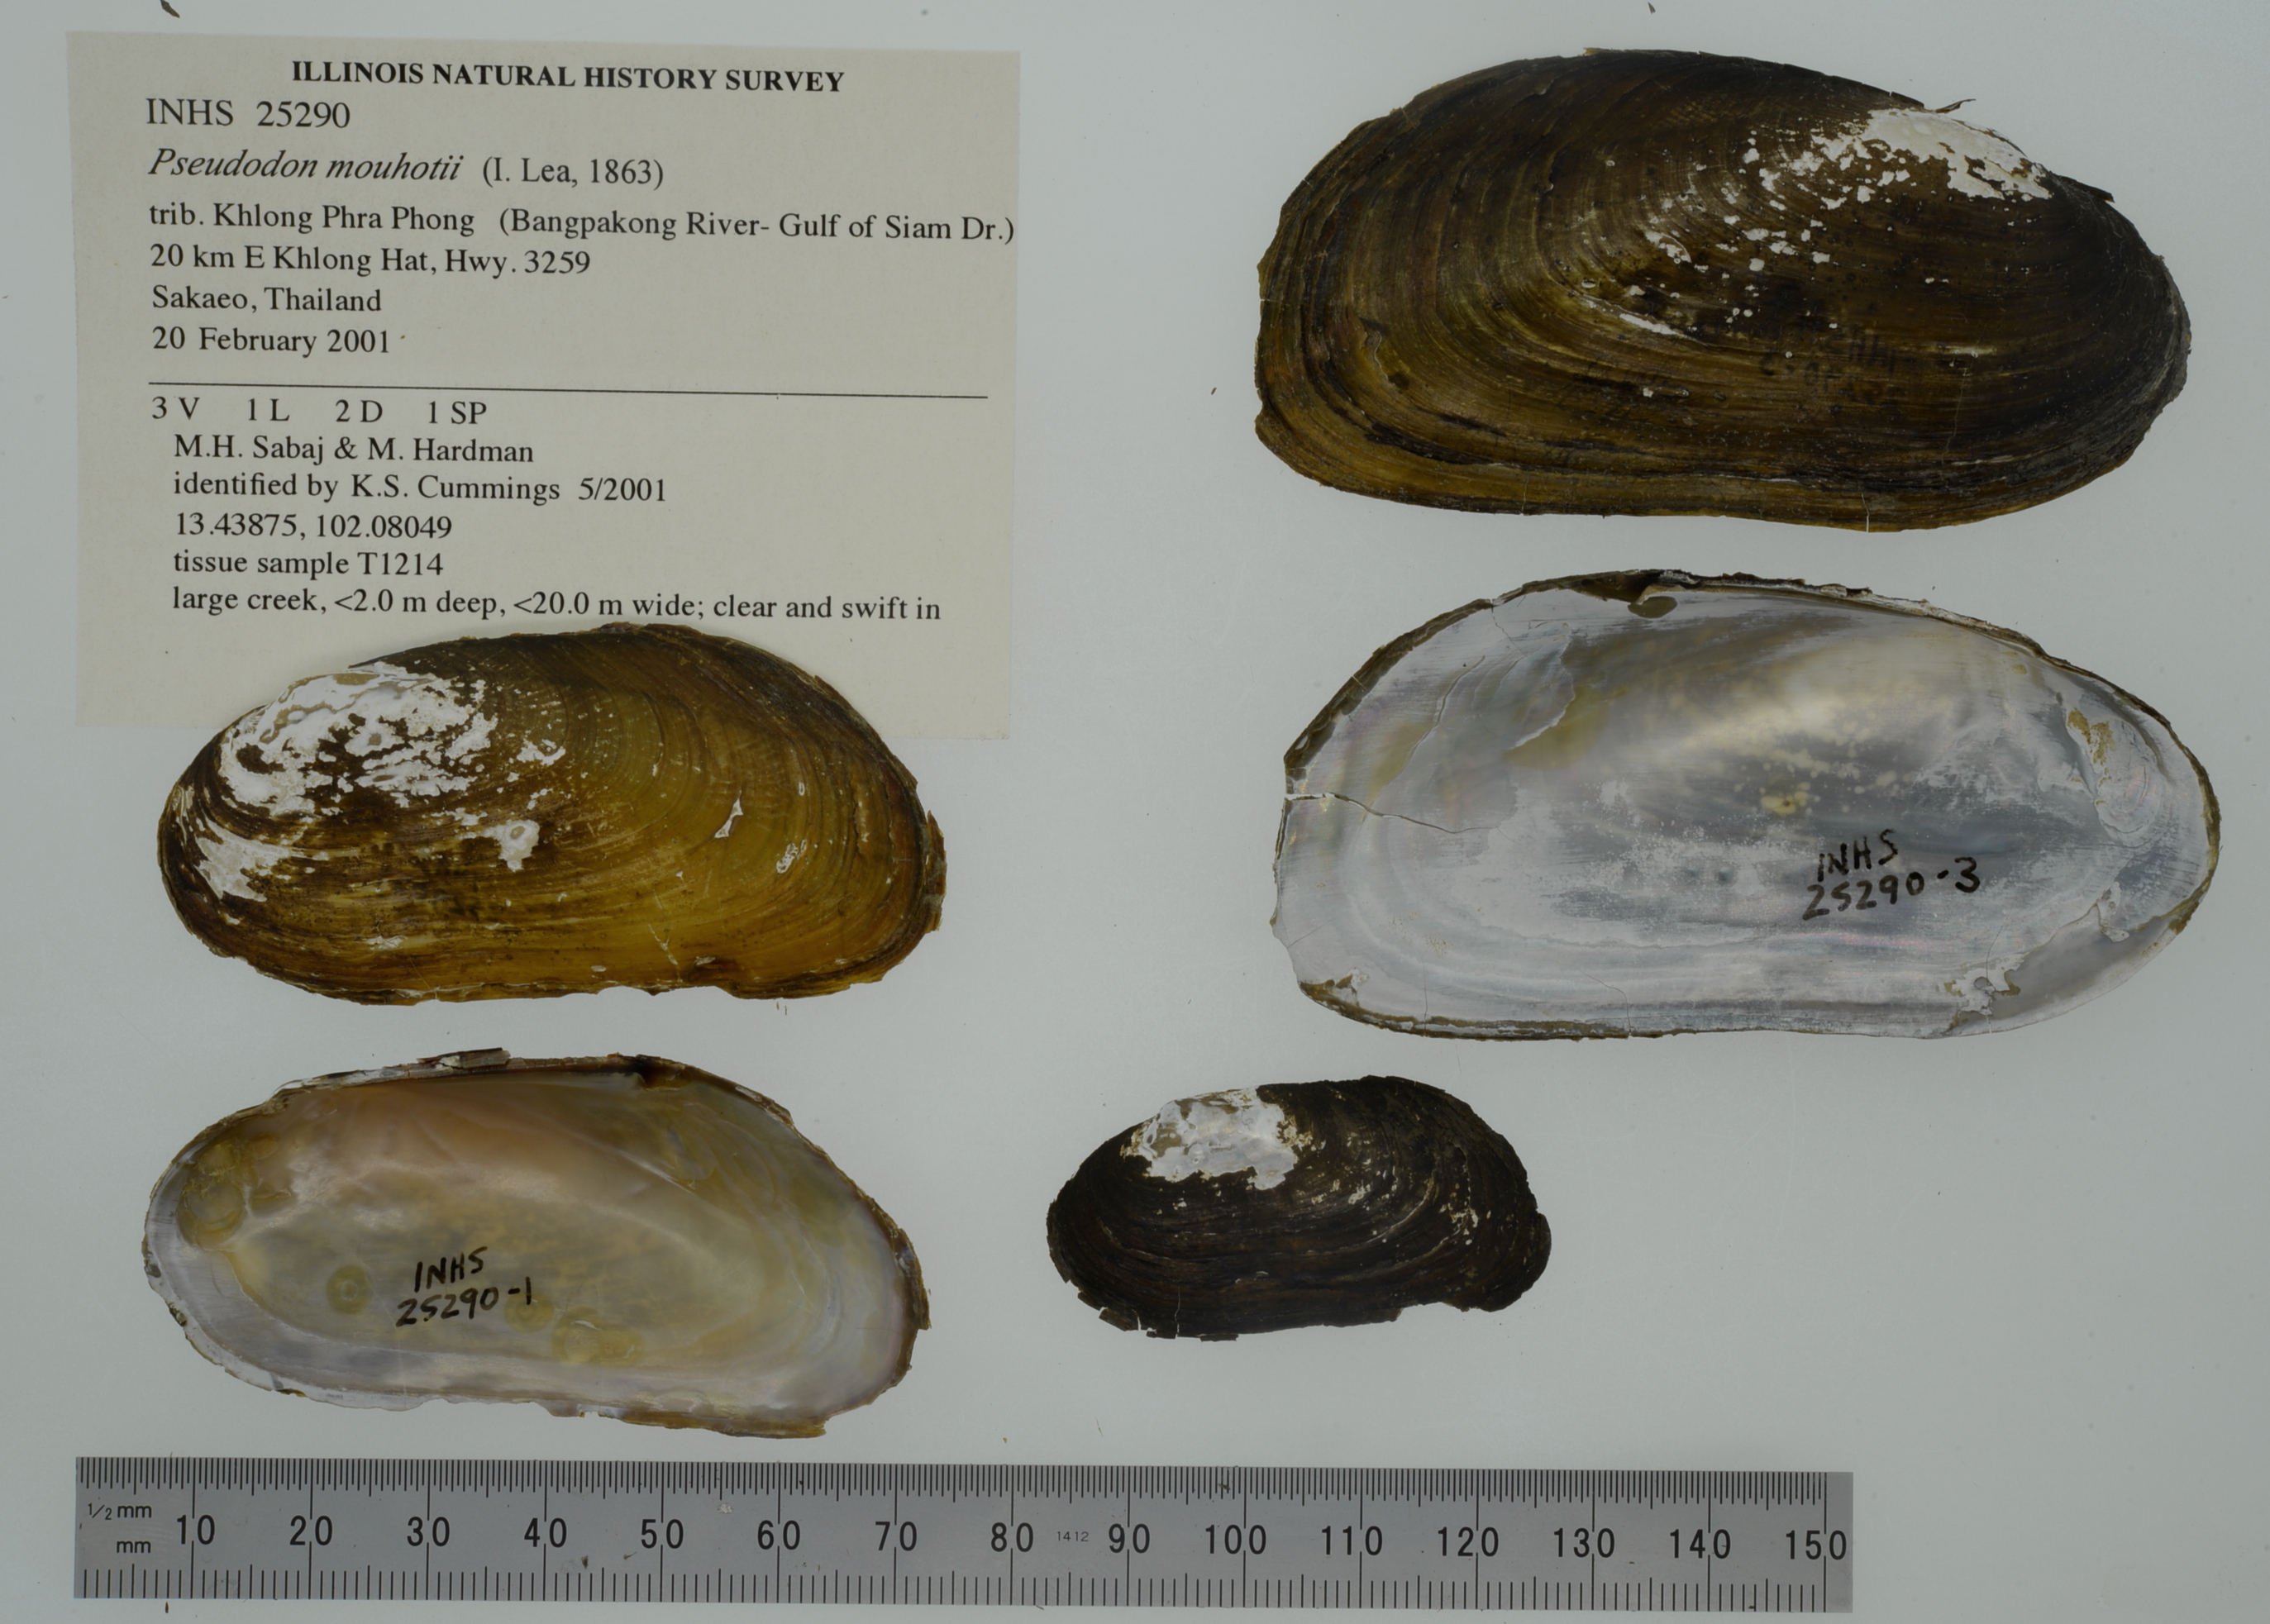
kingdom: Animalia
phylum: Mollusca
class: Bivalvia
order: Unionida
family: Unionidae
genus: Bineurus
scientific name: Bineurus mouhotii
